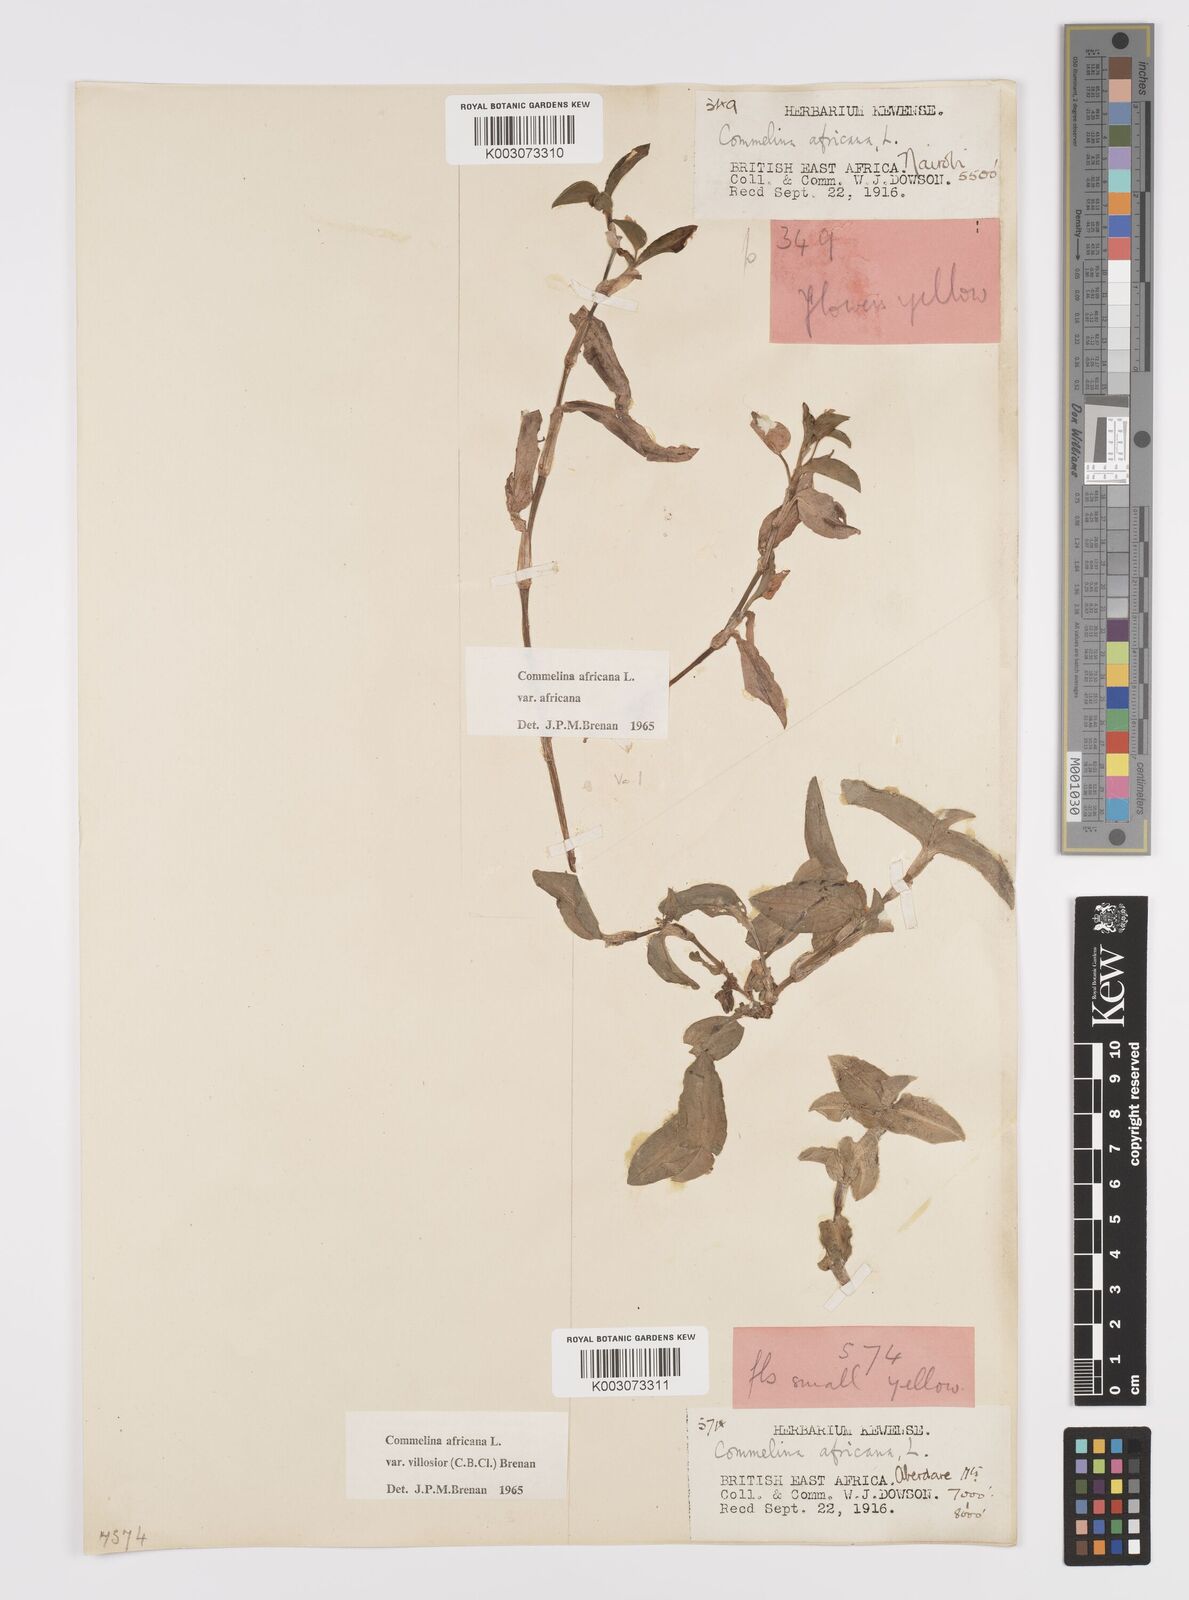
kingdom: Plantae
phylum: Tracheophyta
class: Liliopsida
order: Commelinales
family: Commelinaceae
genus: Commelina
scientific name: Commelina africana
